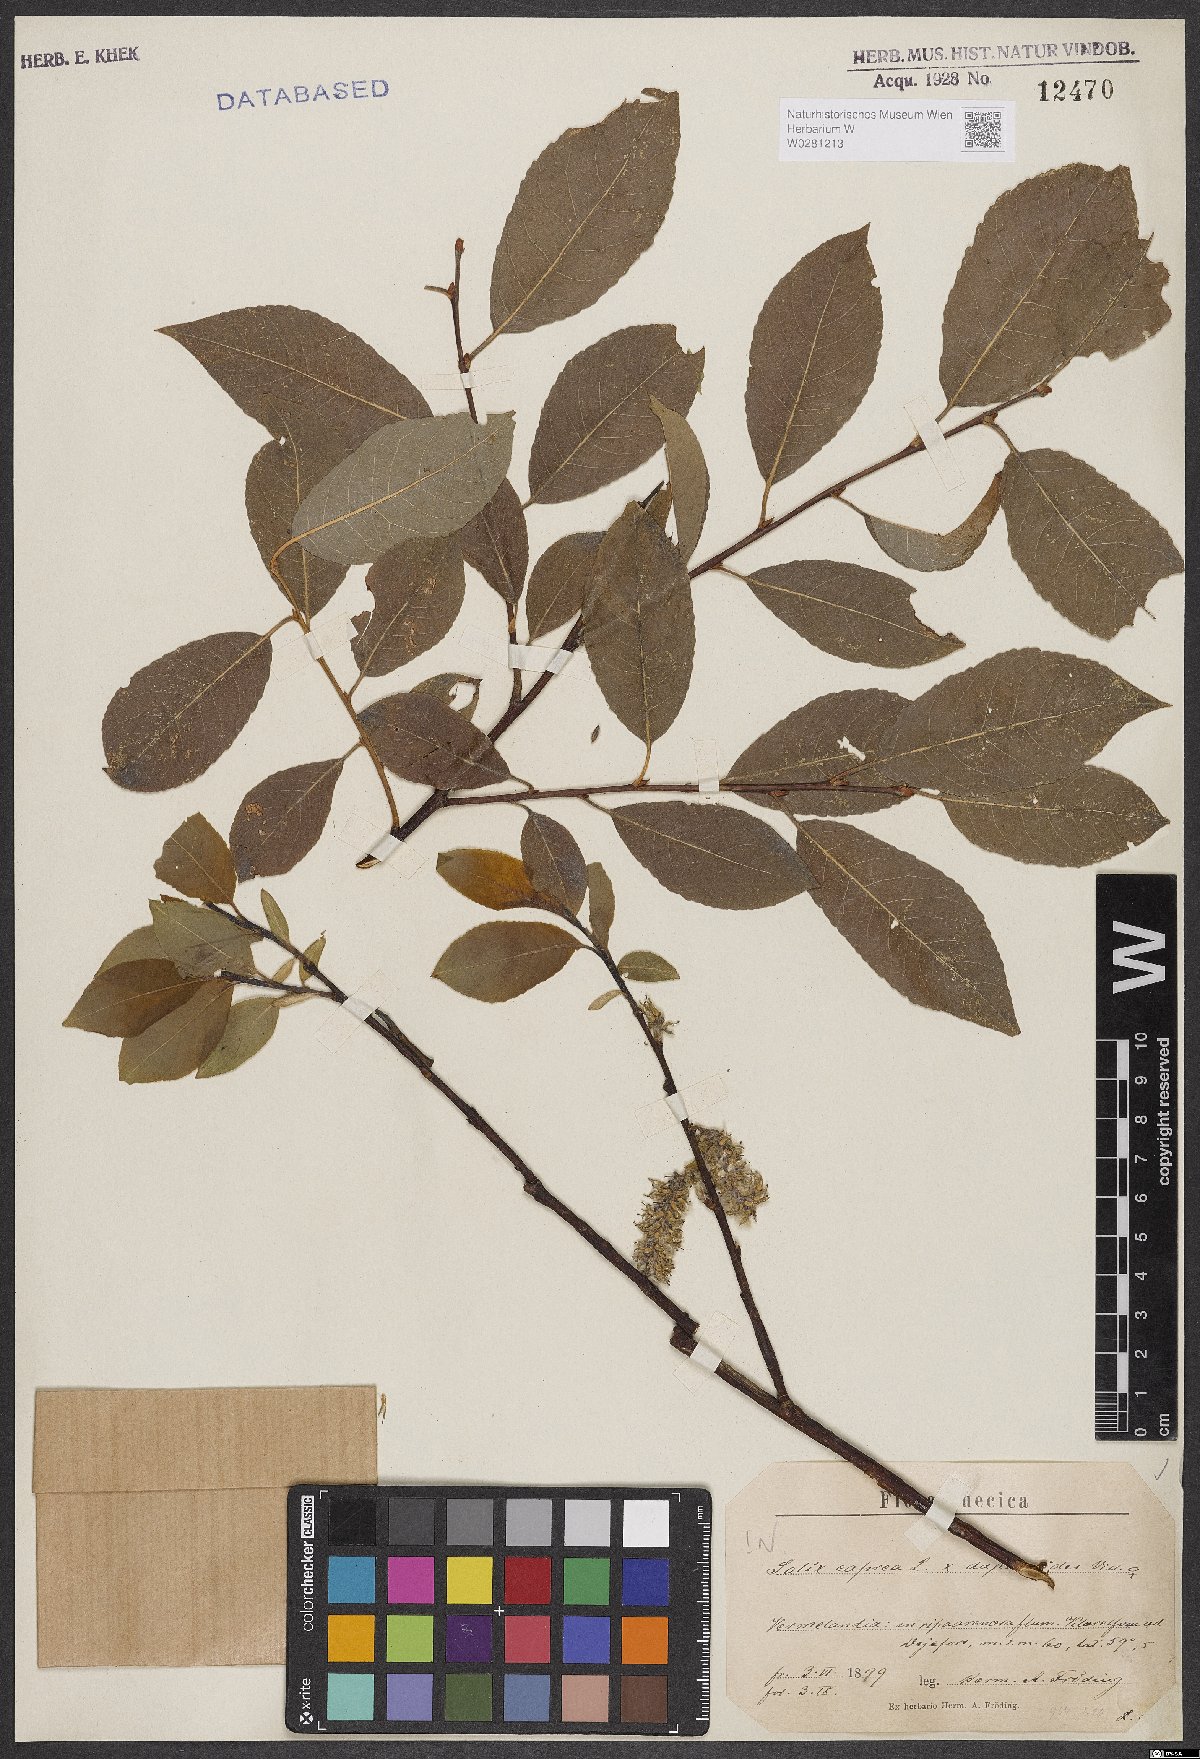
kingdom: Plantae
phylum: Tracheophyta
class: Magnoliopsida
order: Malpighiales
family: Salicaceae
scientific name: Salicaceae
